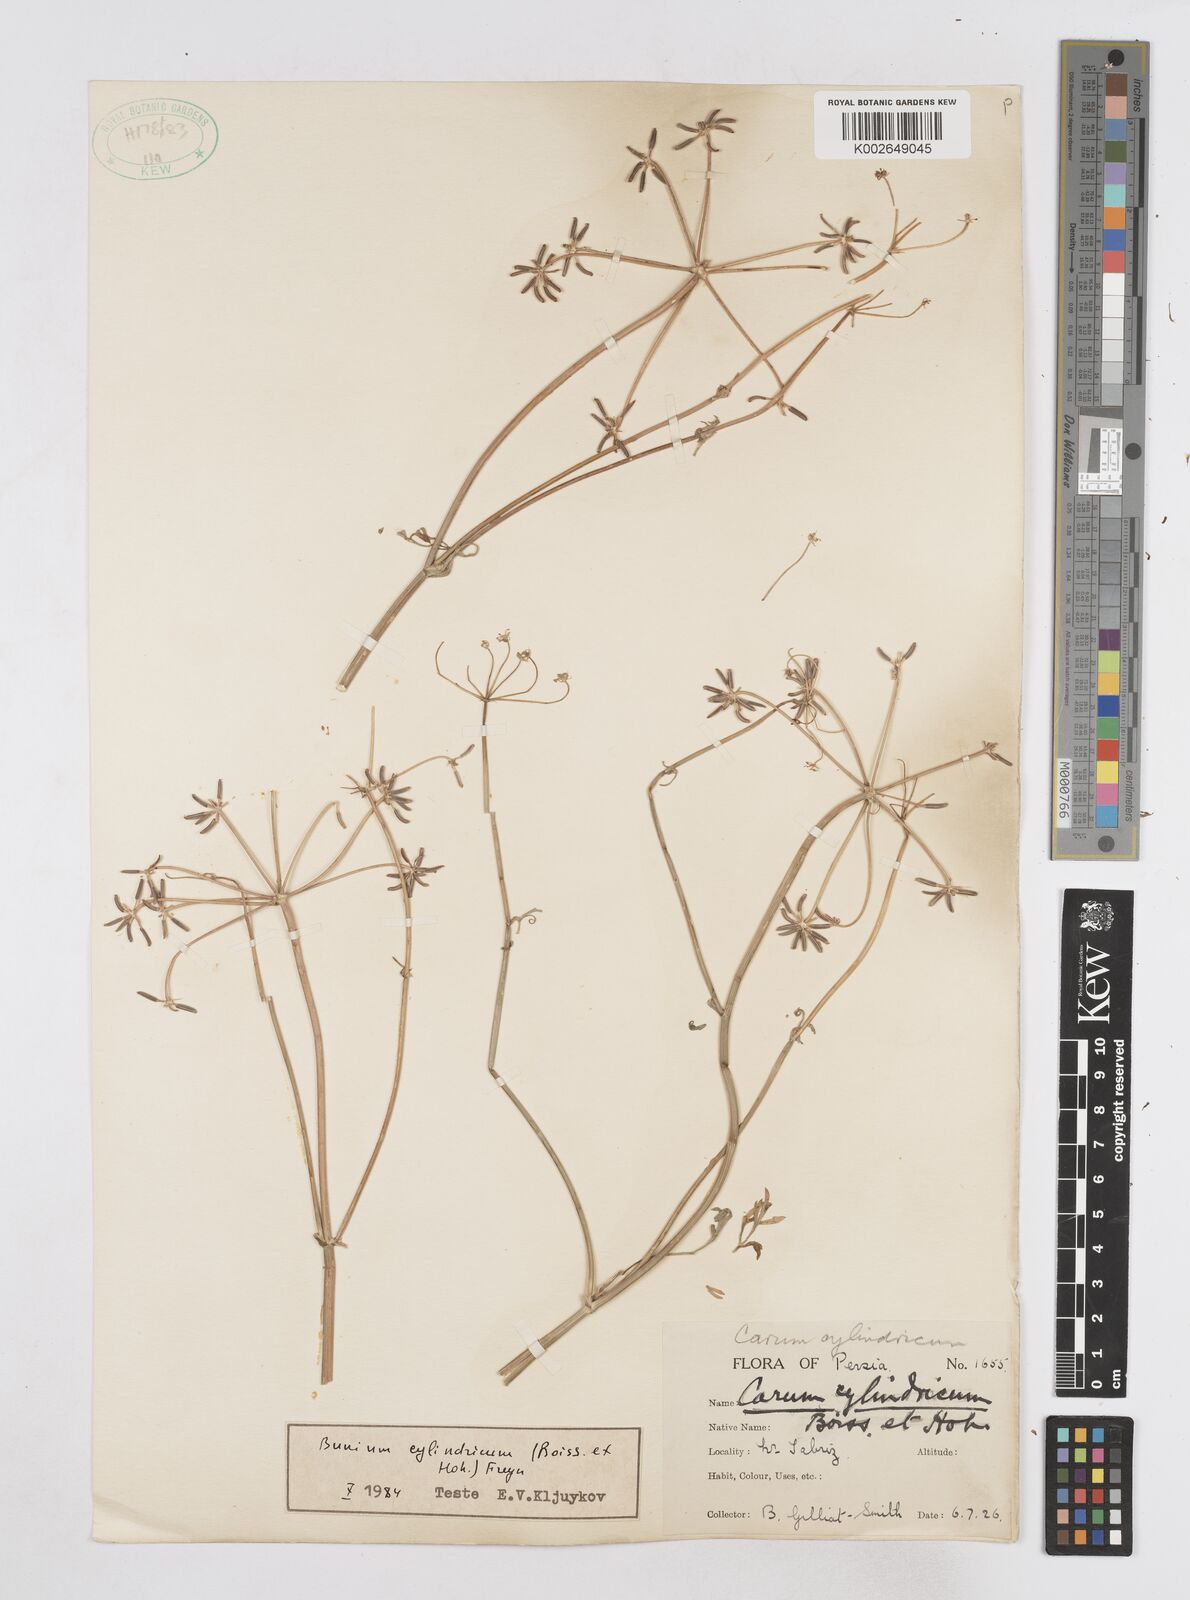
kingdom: Plantae
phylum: Tracheophyta
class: Magnoliopsida
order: Apiales
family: Apiaceae
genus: Elwendia
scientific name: Elwendia cylindrica
